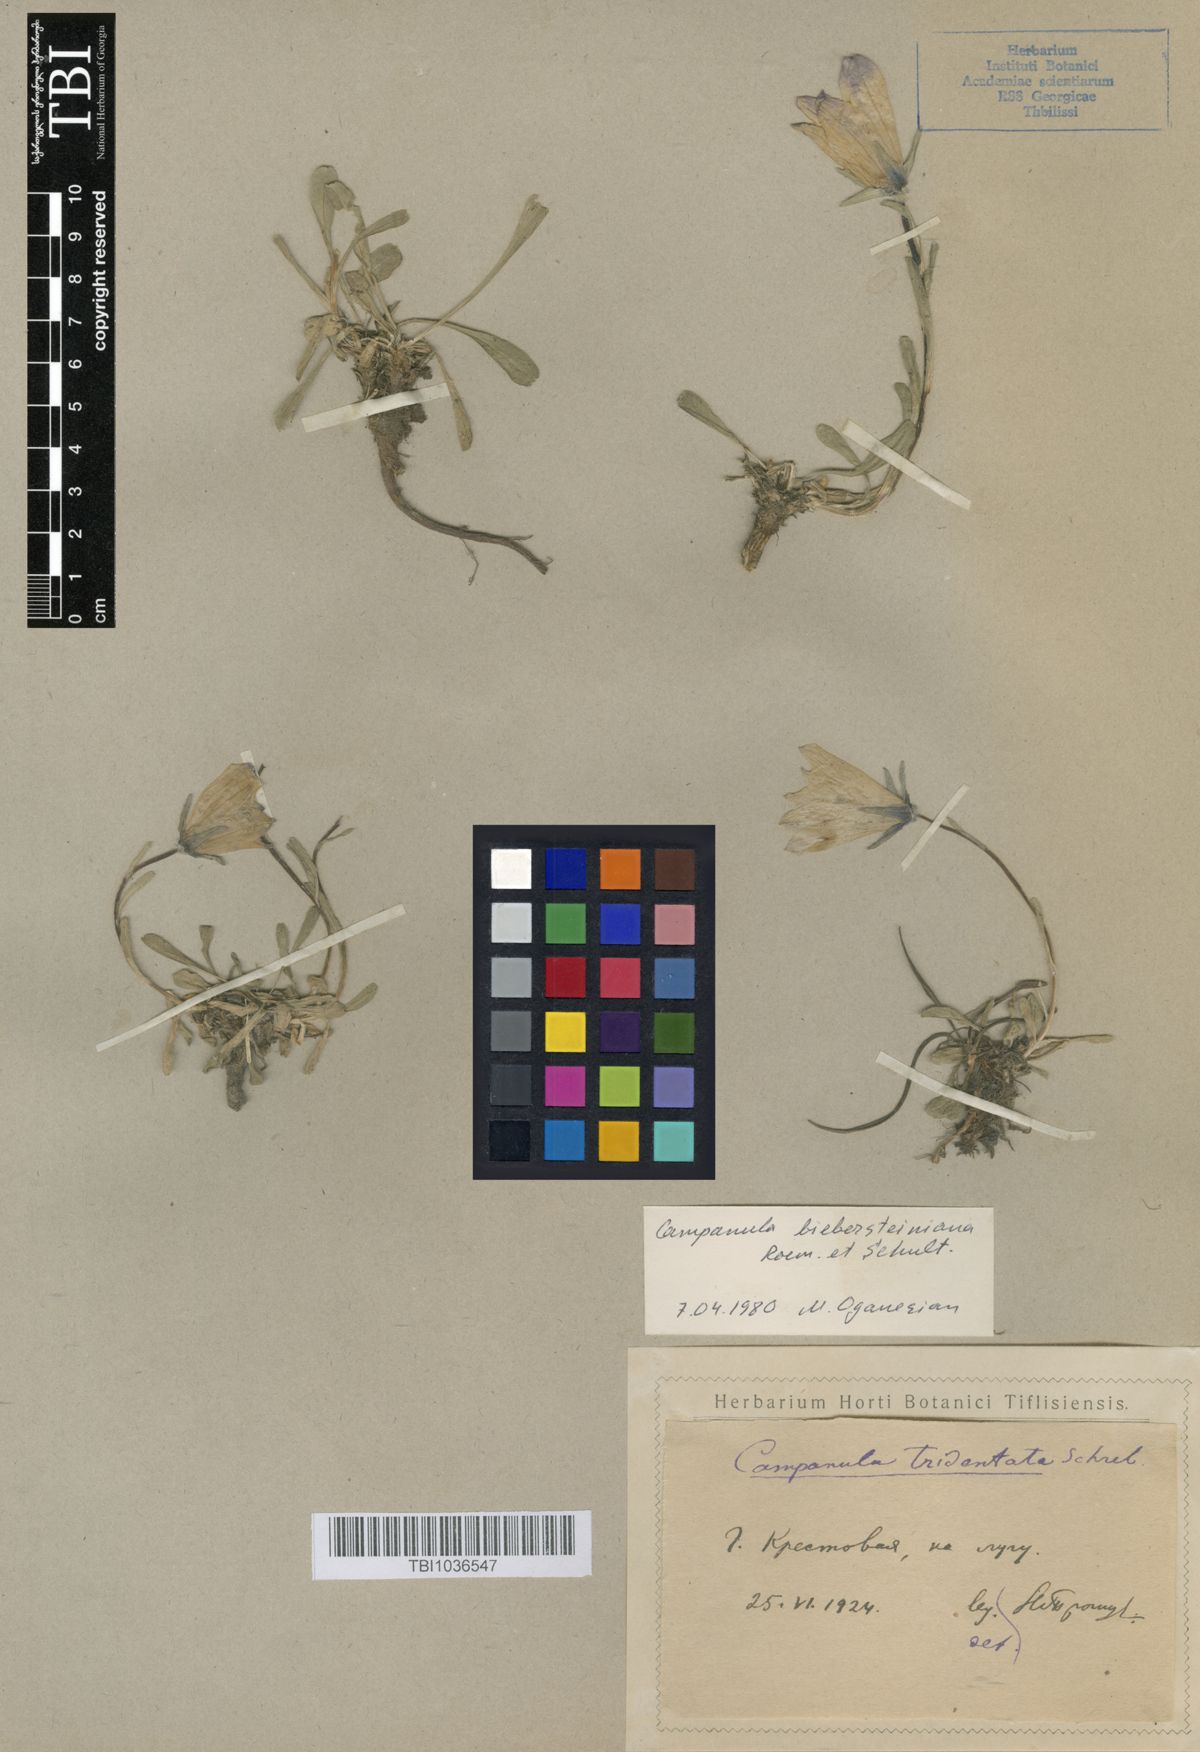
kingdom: Plantae
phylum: Tracheophyta
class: Magnoliopsida
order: Asterales
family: Campanulaceae
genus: Campanula
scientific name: Campanula tridentata
